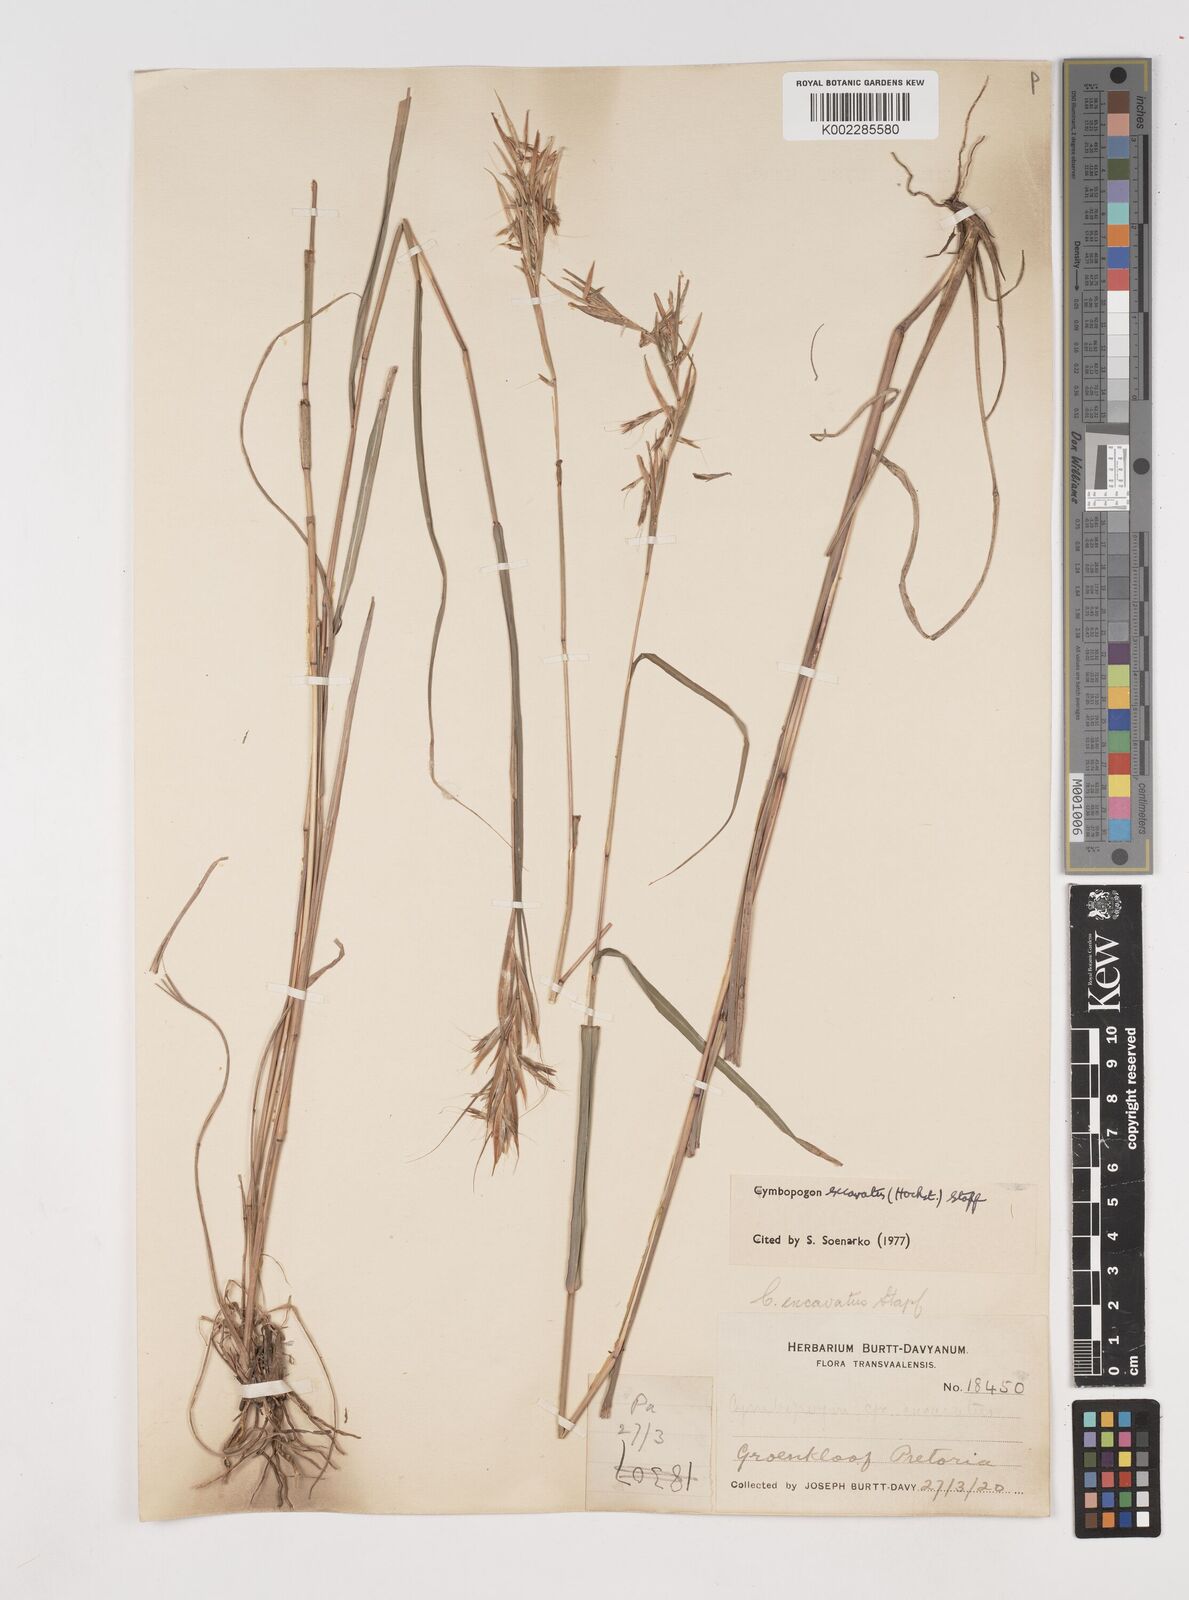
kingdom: Plantae
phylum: Tracheophyta
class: Liliopsida
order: Poales
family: Poaceae
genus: Cymbopogon
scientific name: Cymbopogon caesius
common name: Kachi grass
